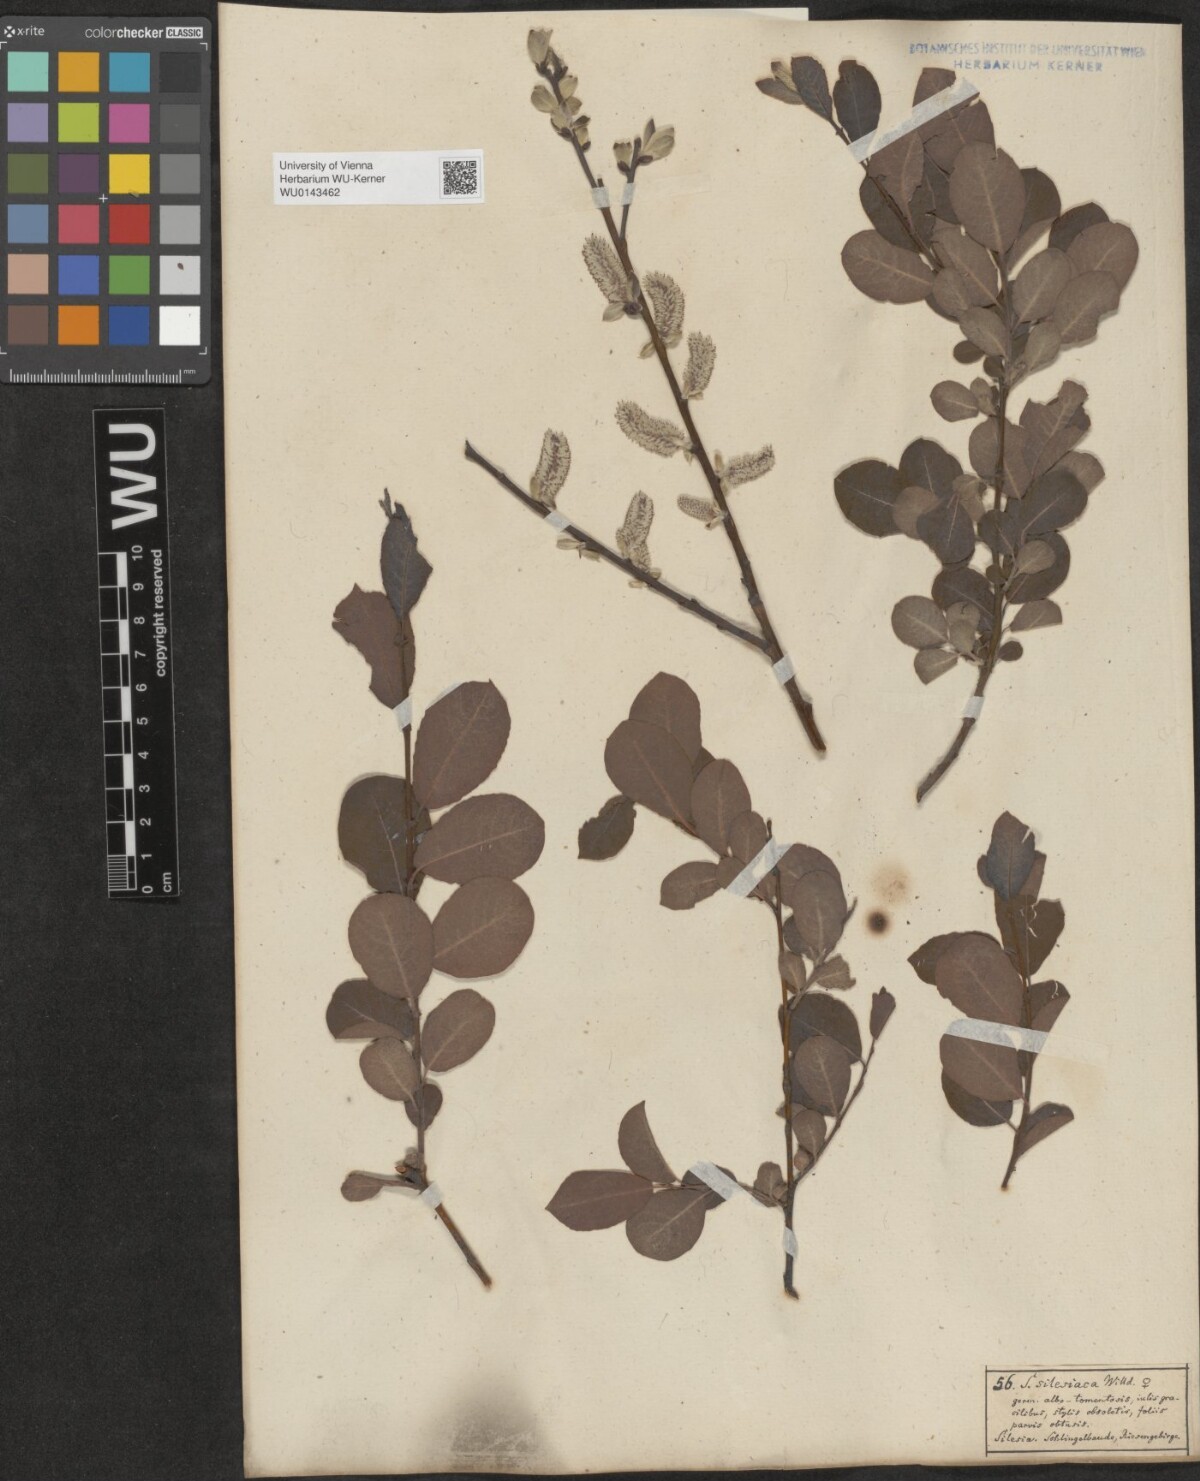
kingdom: Plantae
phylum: Tracheophyta
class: Magnoliopsida
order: Malpighiales
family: Salicaceae
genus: Salix
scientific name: Salix silesiaca
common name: Silesian willow
